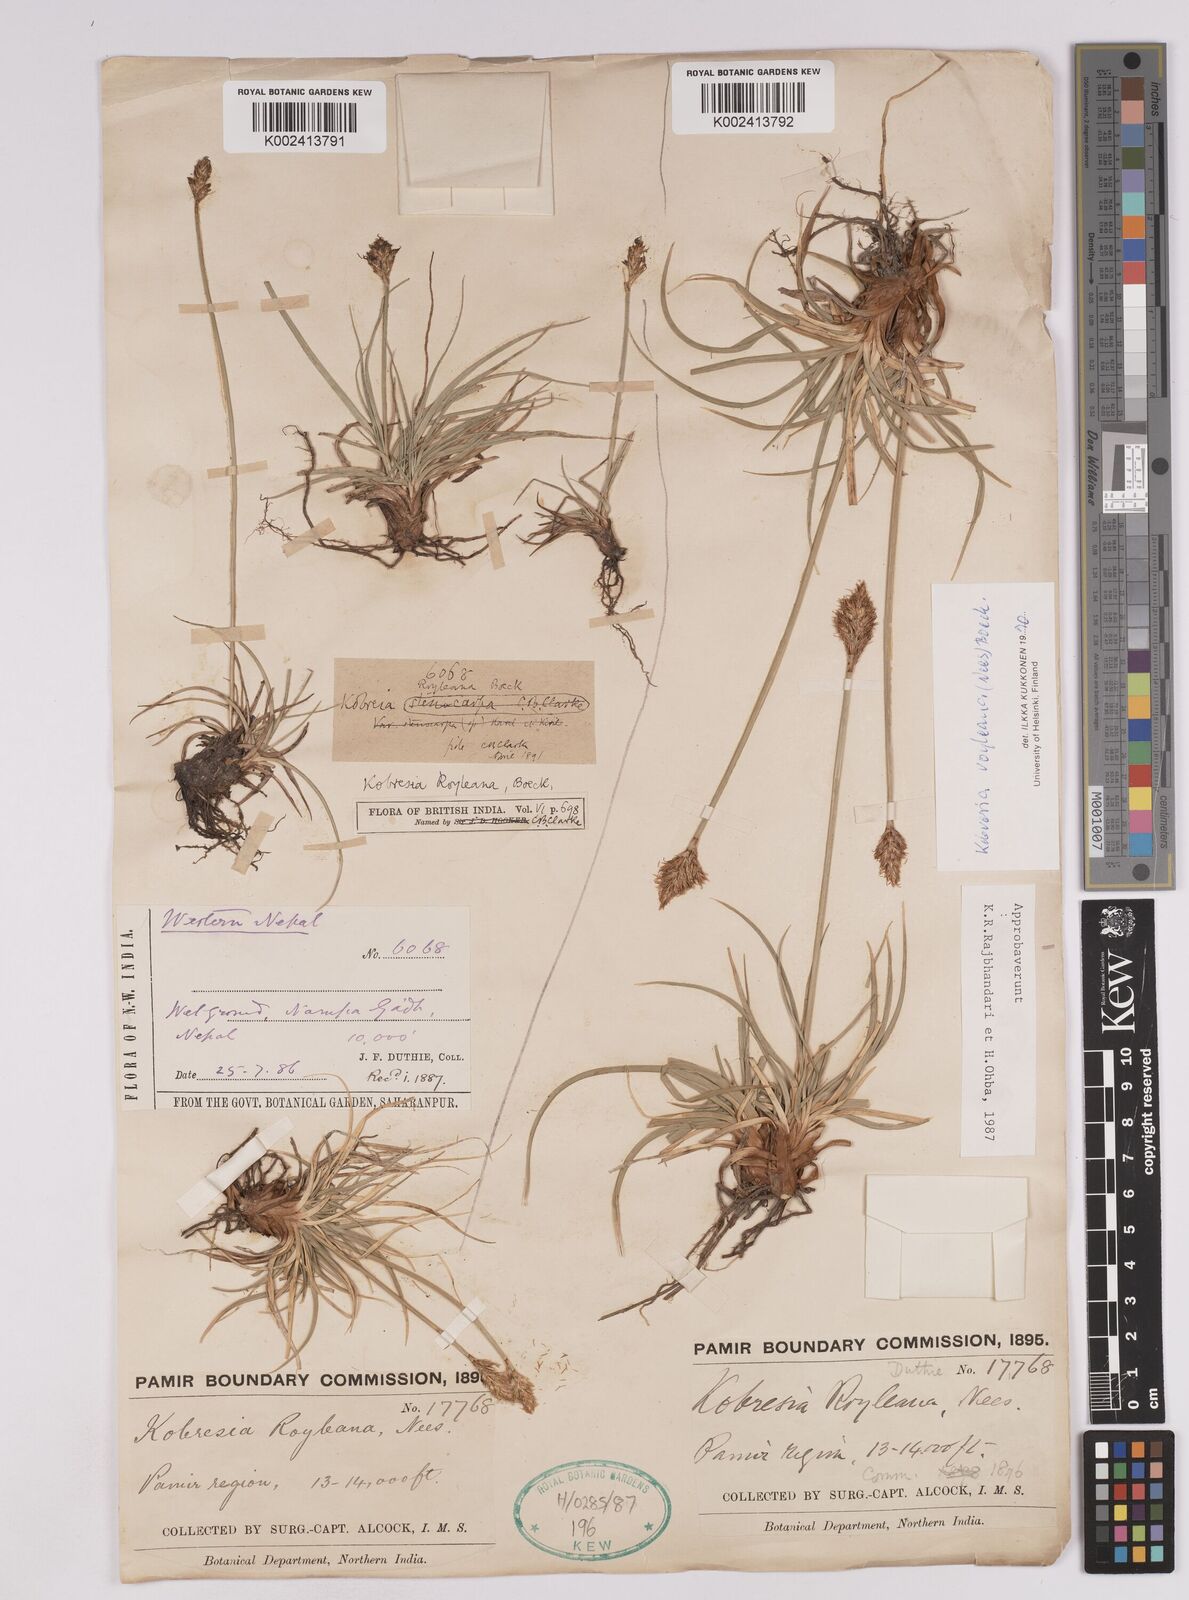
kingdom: Plantae
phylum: Tracheophyta
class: Liliopsida
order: Poales
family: Cyperaceae
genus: Carex
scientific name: Carex kokanica
